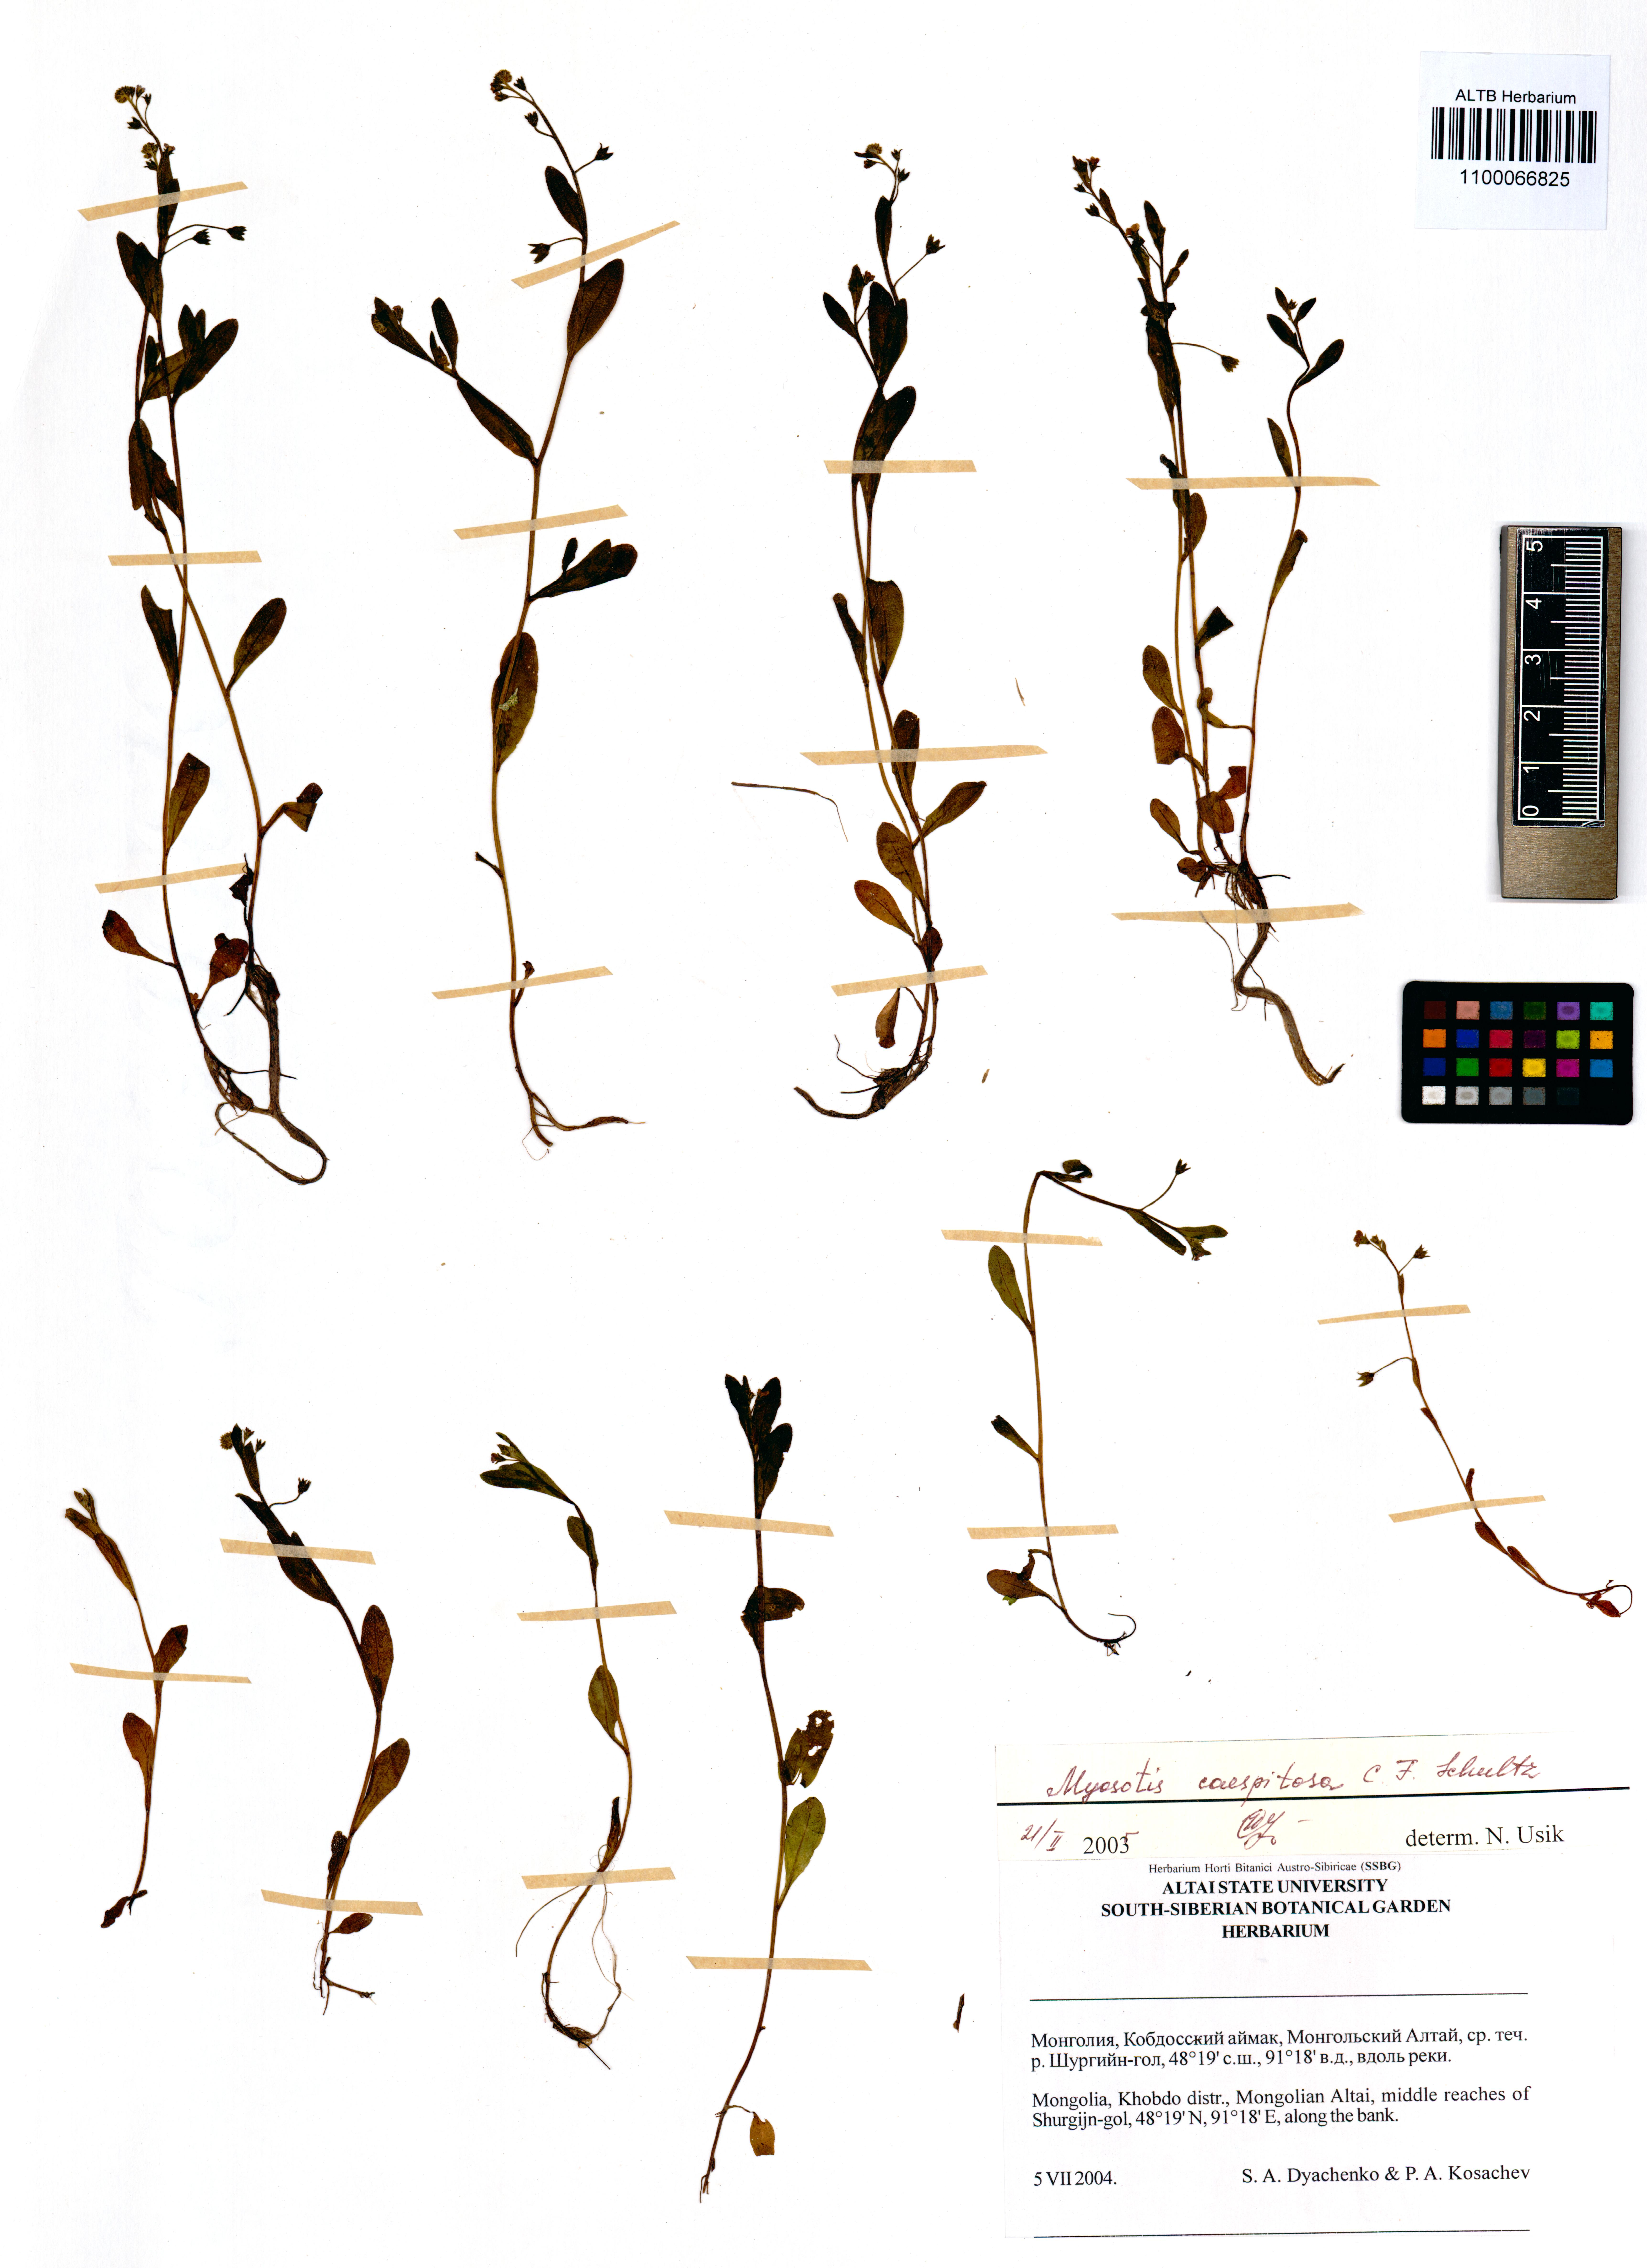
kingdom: Plantae
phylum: Tracheophyta
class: Magnoliopsida
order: Boraginales
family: Boraginaceae
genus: Myosotis
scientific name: Myosotis laxa
